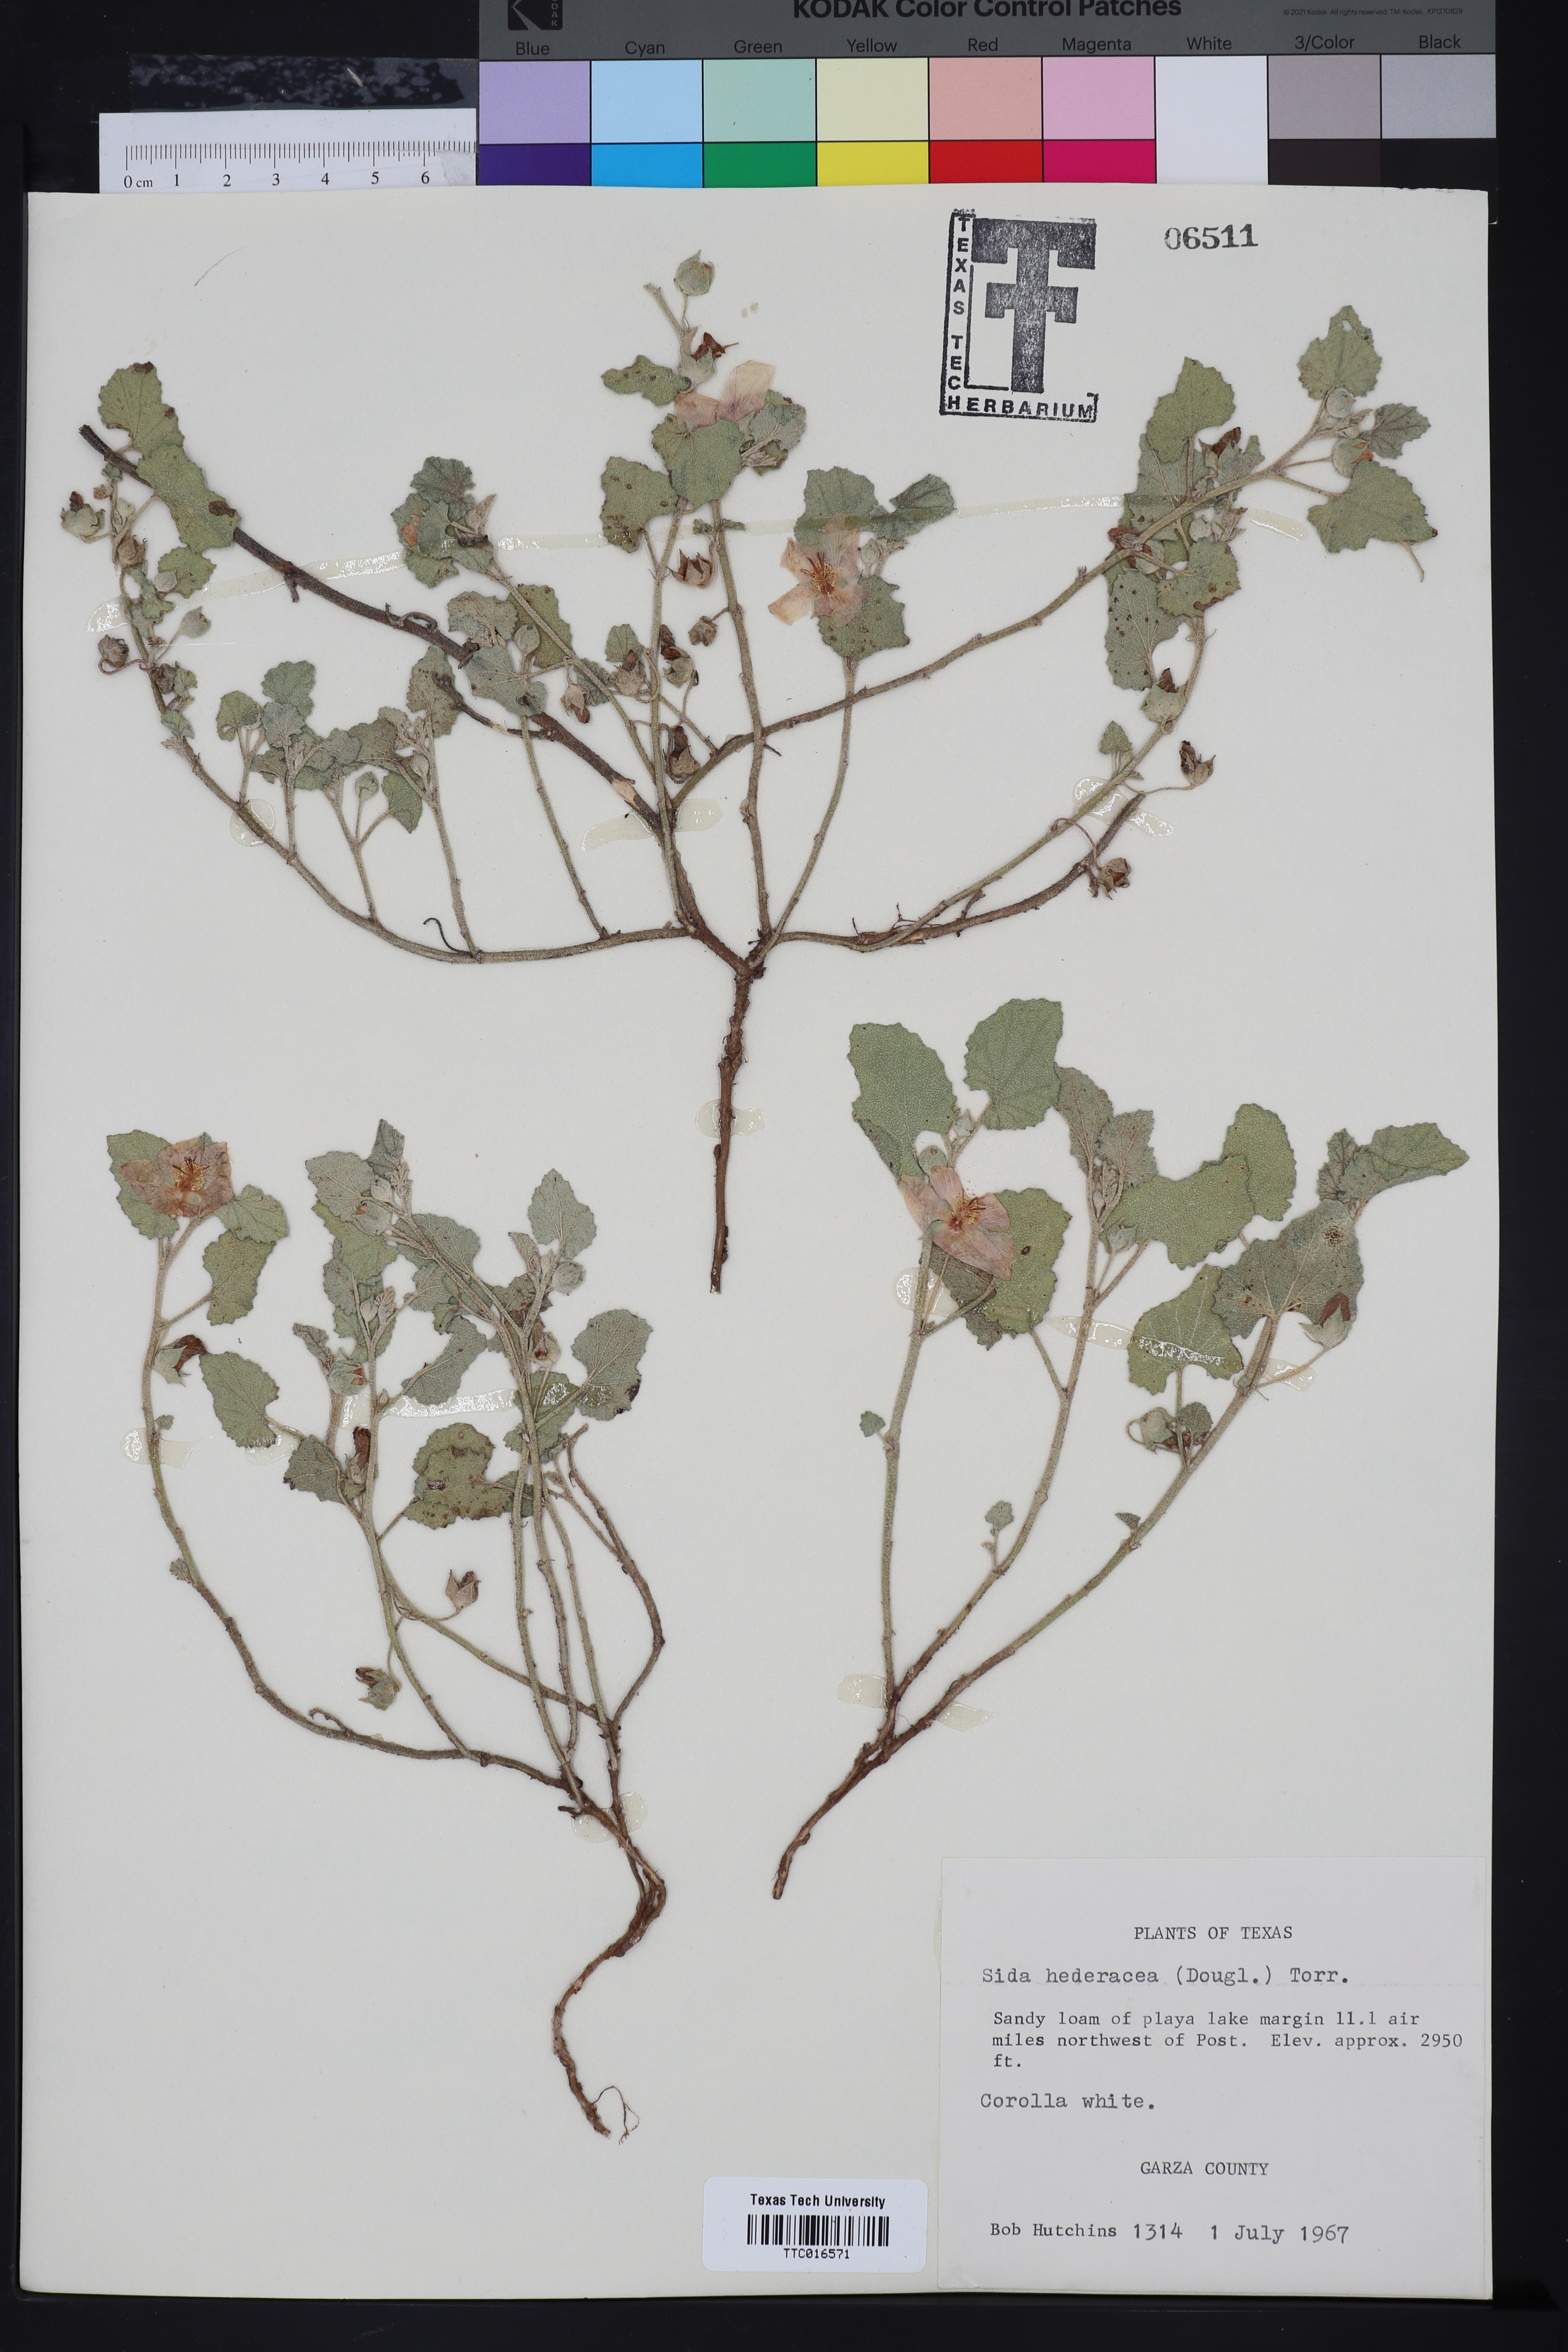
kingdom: Plantae
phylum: Tracheophyta
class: Magnoliopsida
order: Malvales
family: Malvaceae
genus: Malvella
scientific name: Malvella leprosa
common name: Alkali-mallow
